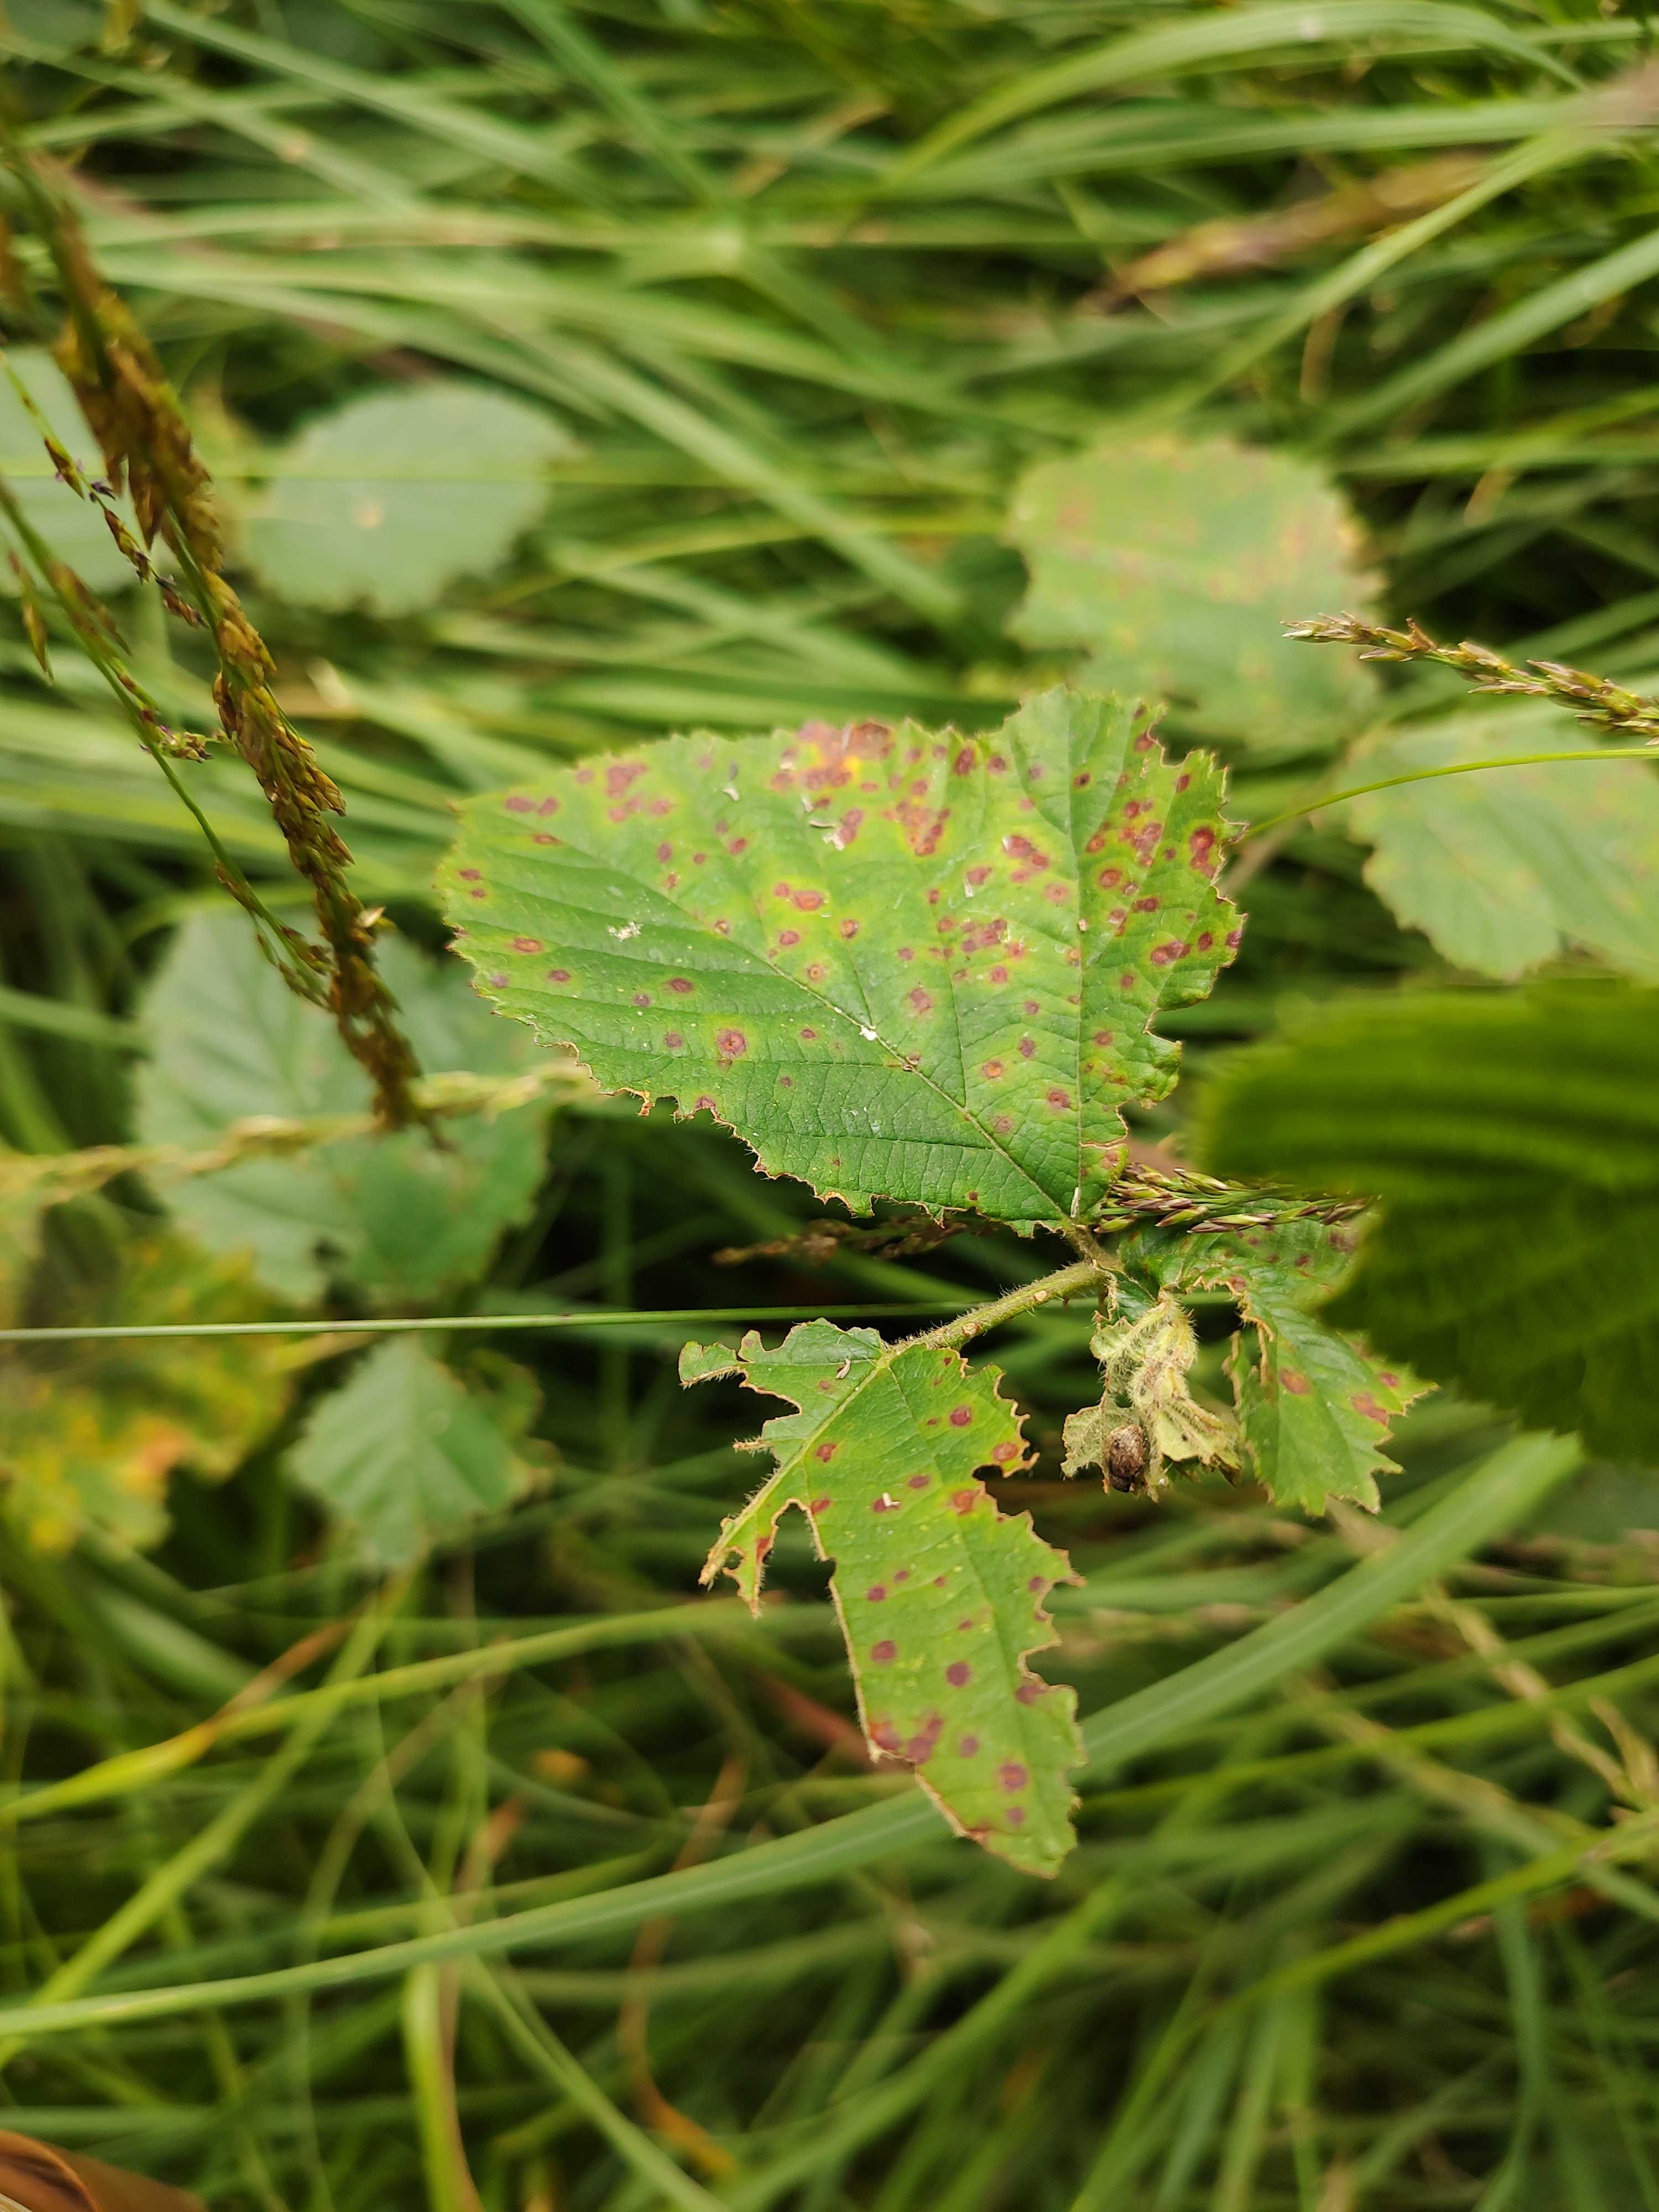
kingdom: Fungi
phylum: Basidiomycota
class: Pucciniomycetes
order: Pucciniales
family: Phragmidiaceae
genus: Phragmidium
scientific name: Phragmidium violaceum
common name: violet flercellerust
